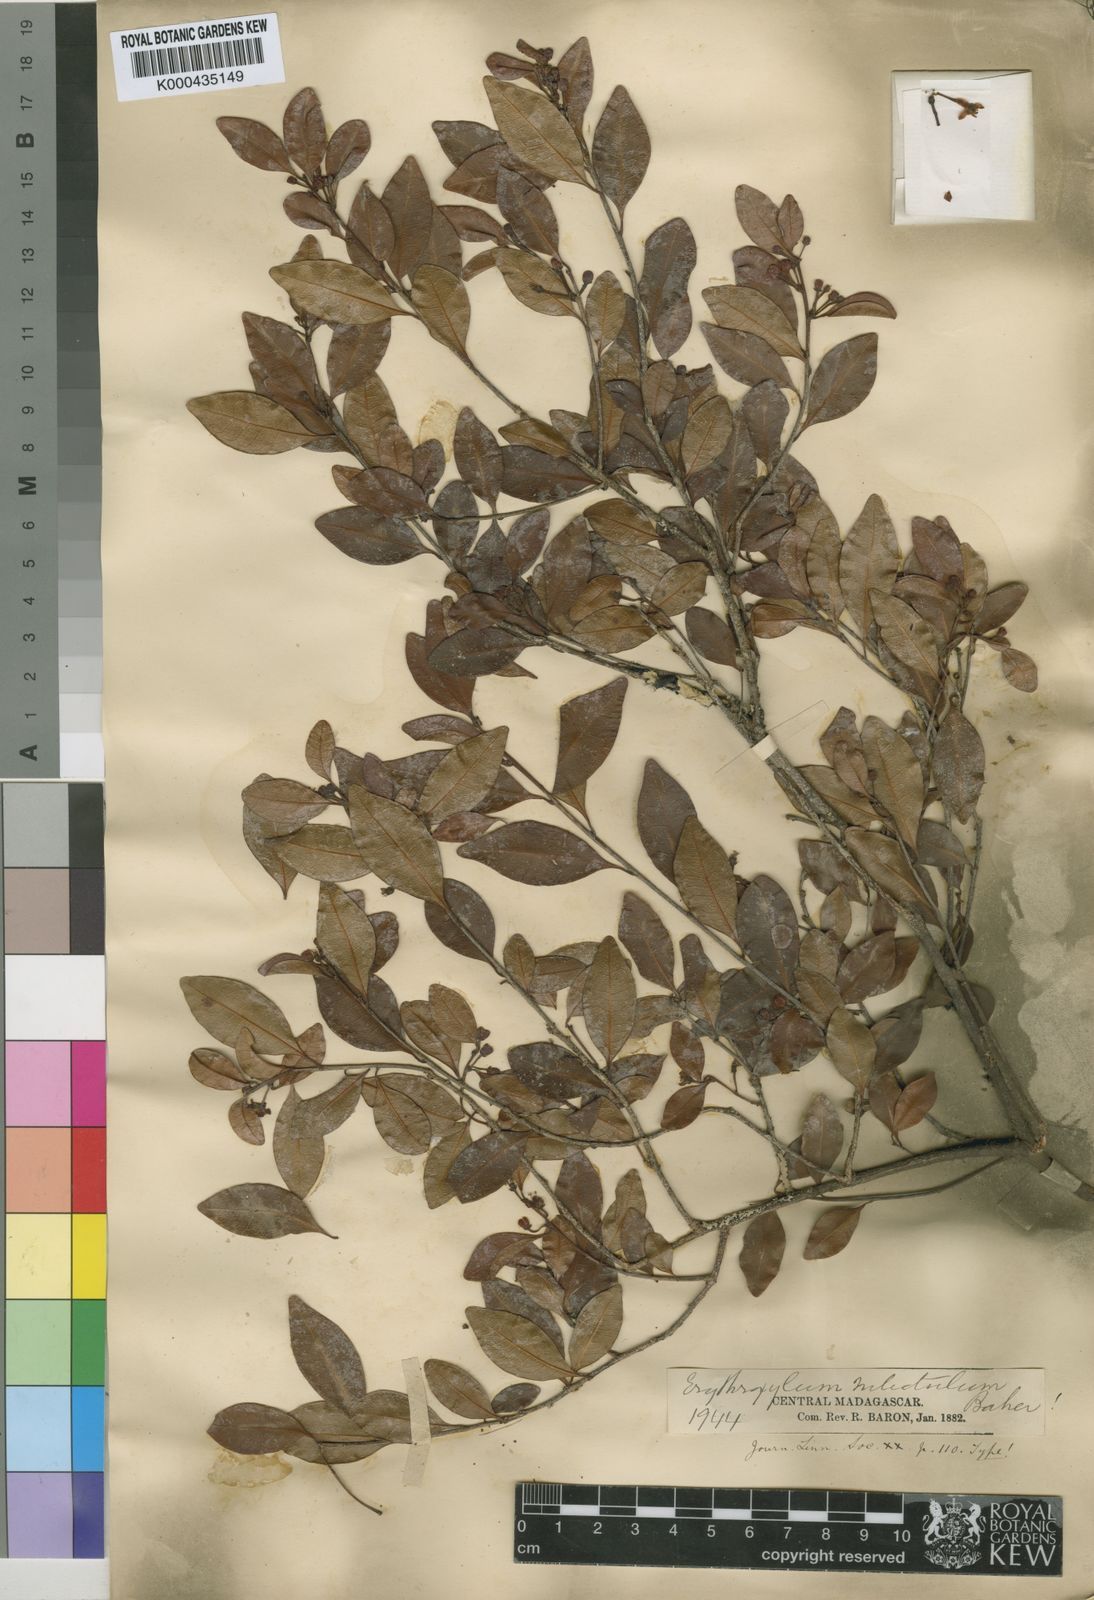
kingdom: Plantae
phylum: Tracheophyta
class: Magnoliopsida
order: Malpighiales
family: Erythroxylaceae
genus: Erythroxylum
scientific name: Erythroxylum nitidulum
